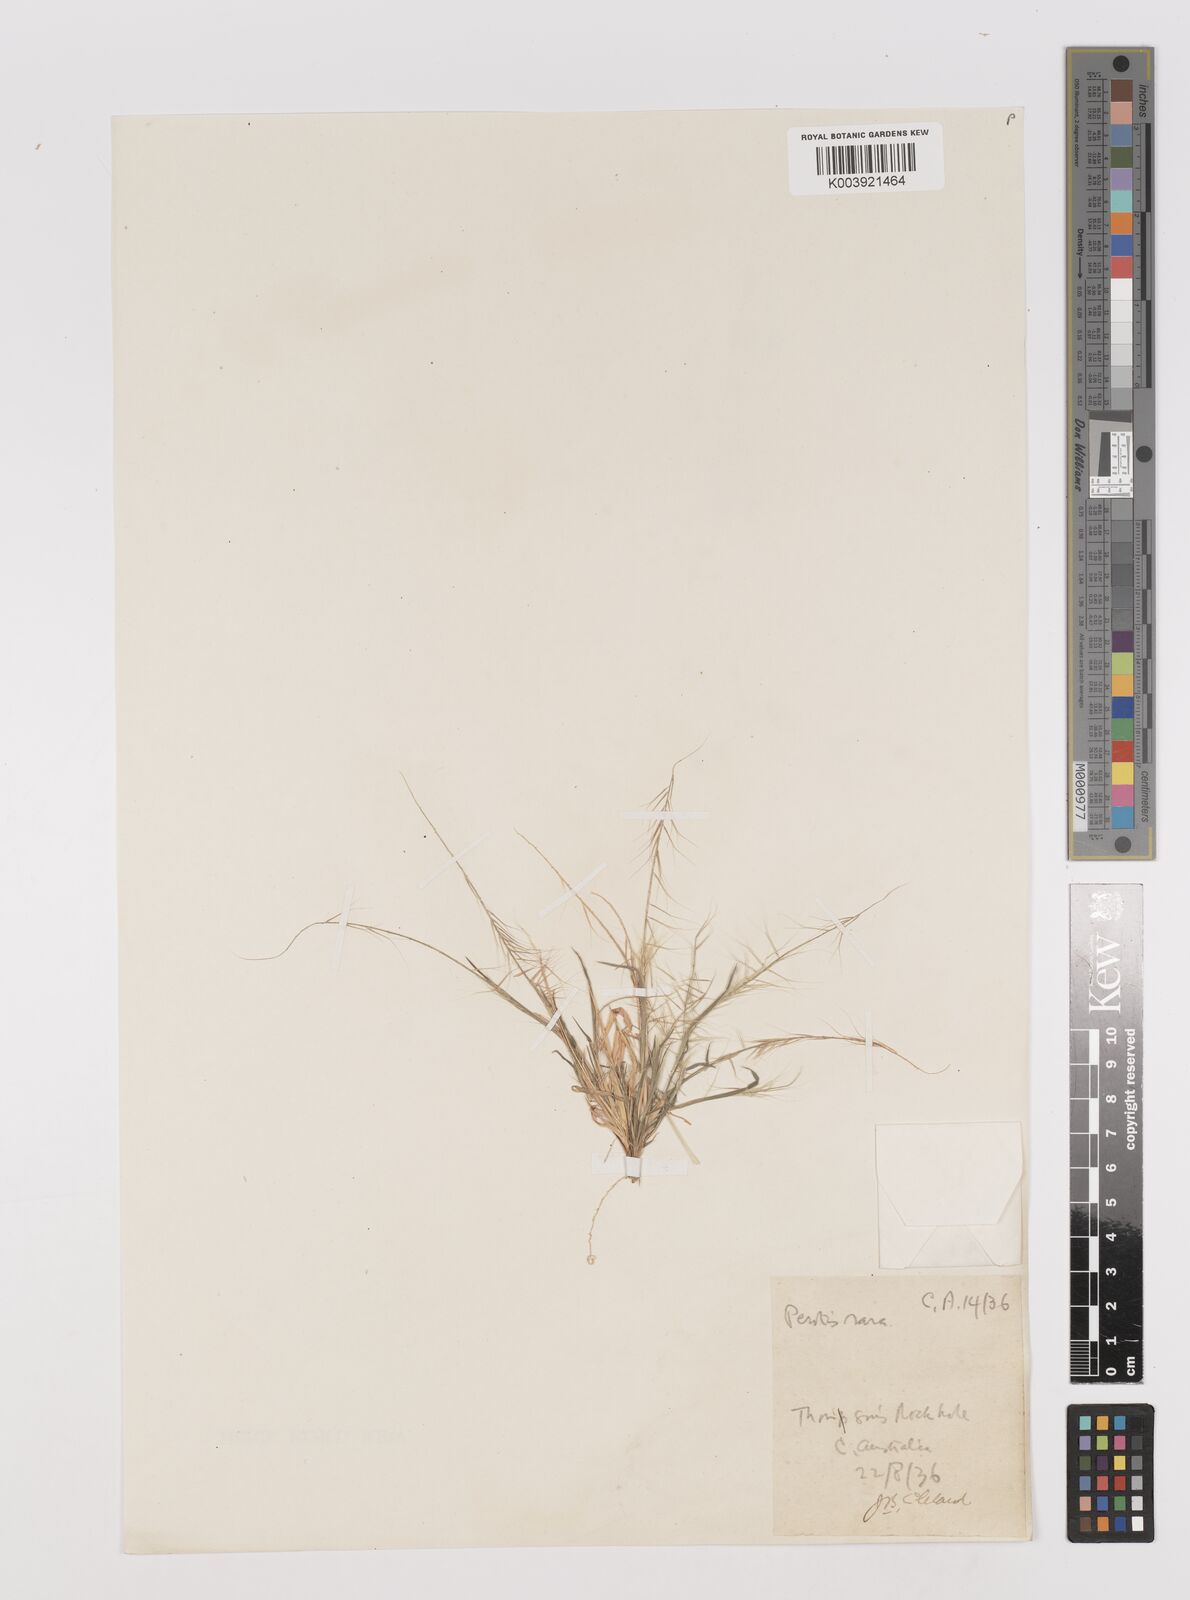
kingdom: Plantae
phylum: Tracheophyta
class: Liliopsida
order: Poales
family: Poaceae
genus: Perotis
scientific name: Perotis rara
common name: Comet grass
